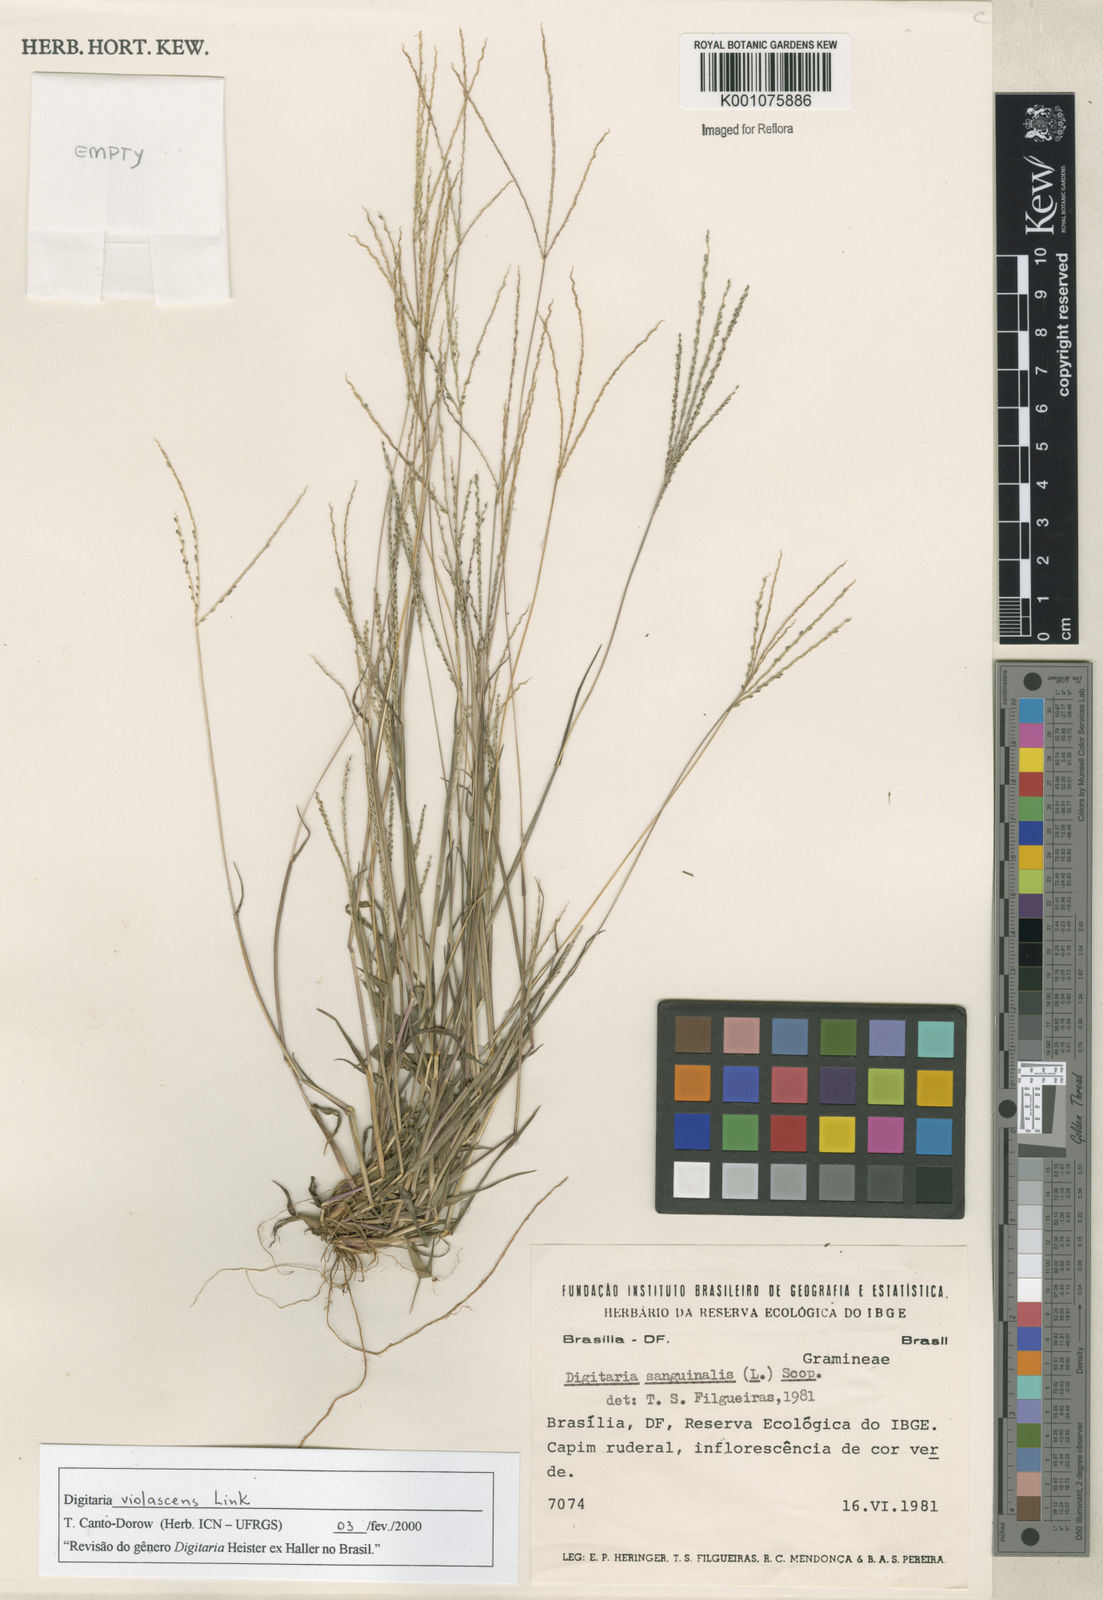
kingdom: Plantae
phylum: Tracheophyta
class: Liliopsida
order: Poales
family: Poaceae
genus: Digitaria
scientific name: Digitaria violascens
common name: Violet crabgrass
